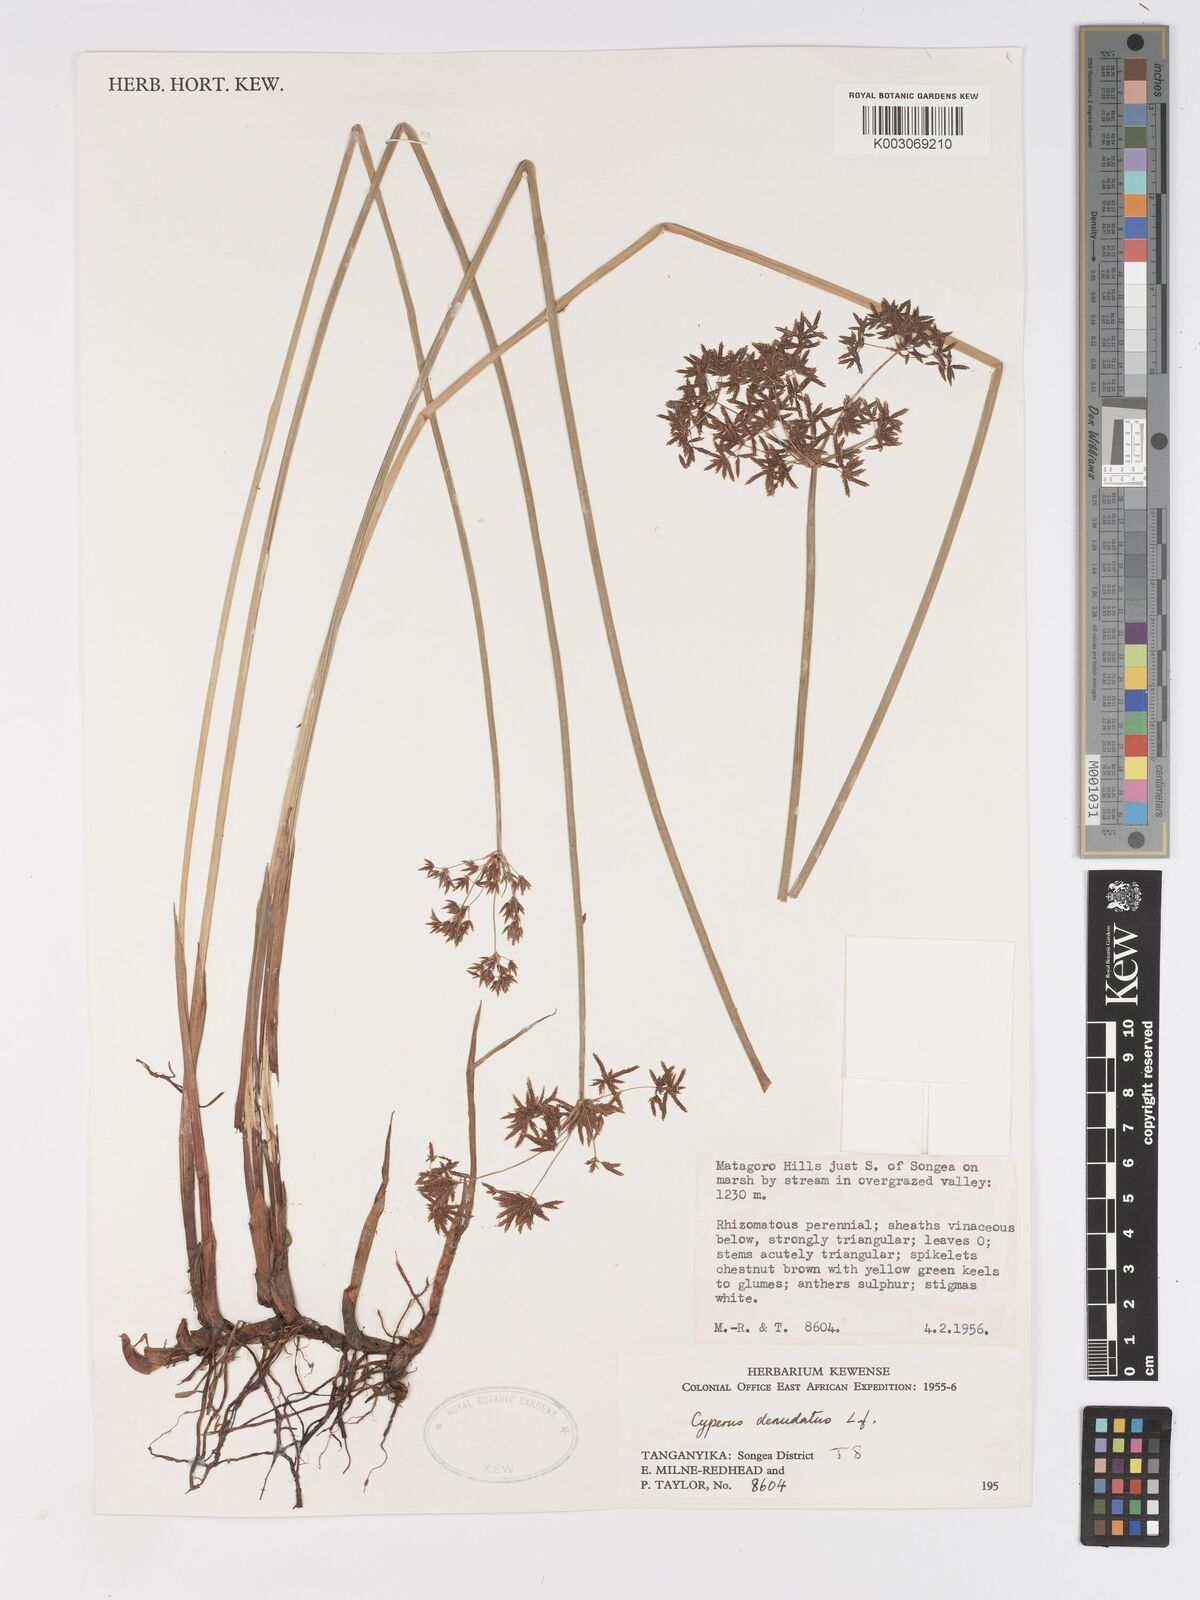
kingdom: Plantae
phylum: Tracheophyta
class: Liliopsida
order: Poales
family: Cyperaceae
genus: Cyperus
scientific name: Cyperus denudatus
